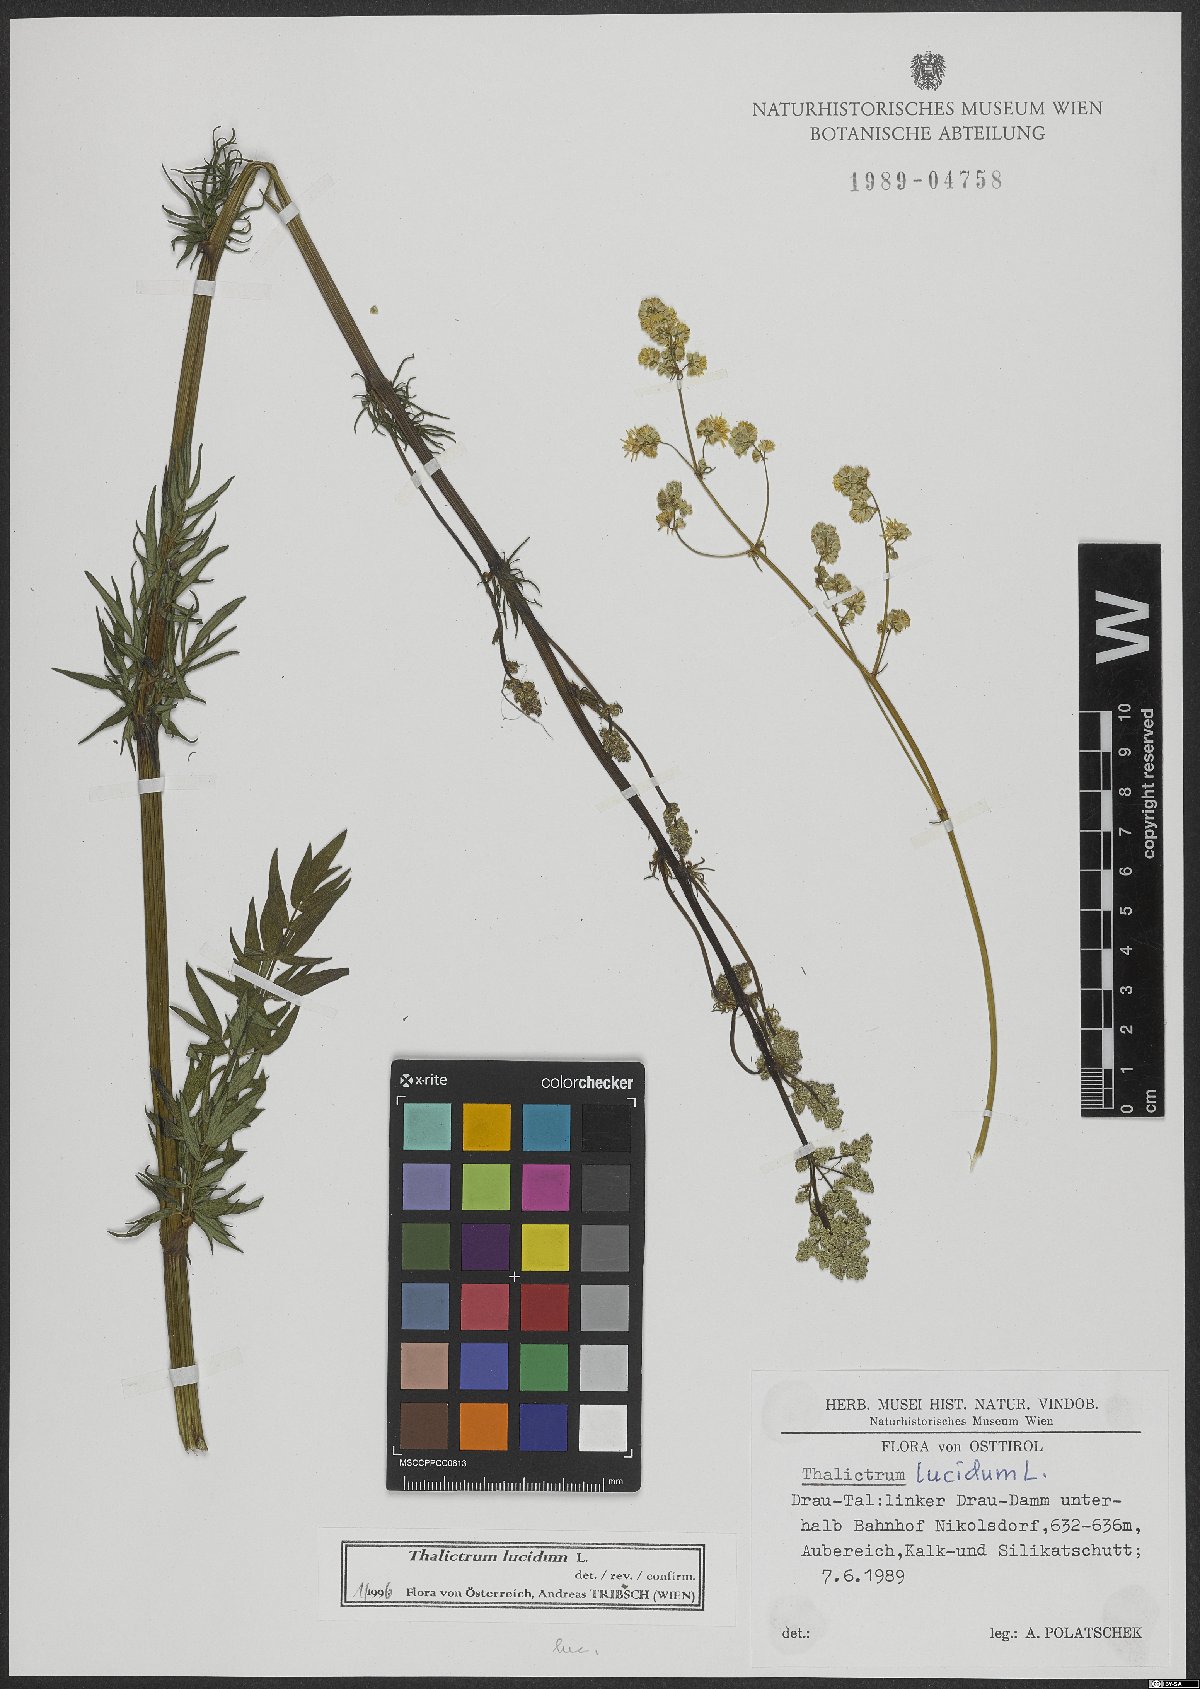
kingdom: Plantae
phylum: Tracheophyta
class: Magnoliopsida
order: Ranunculales
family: Ranunculaceae
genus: Thalictrum
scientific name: Thalictrum lucidum
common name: Shining meadow-rue
